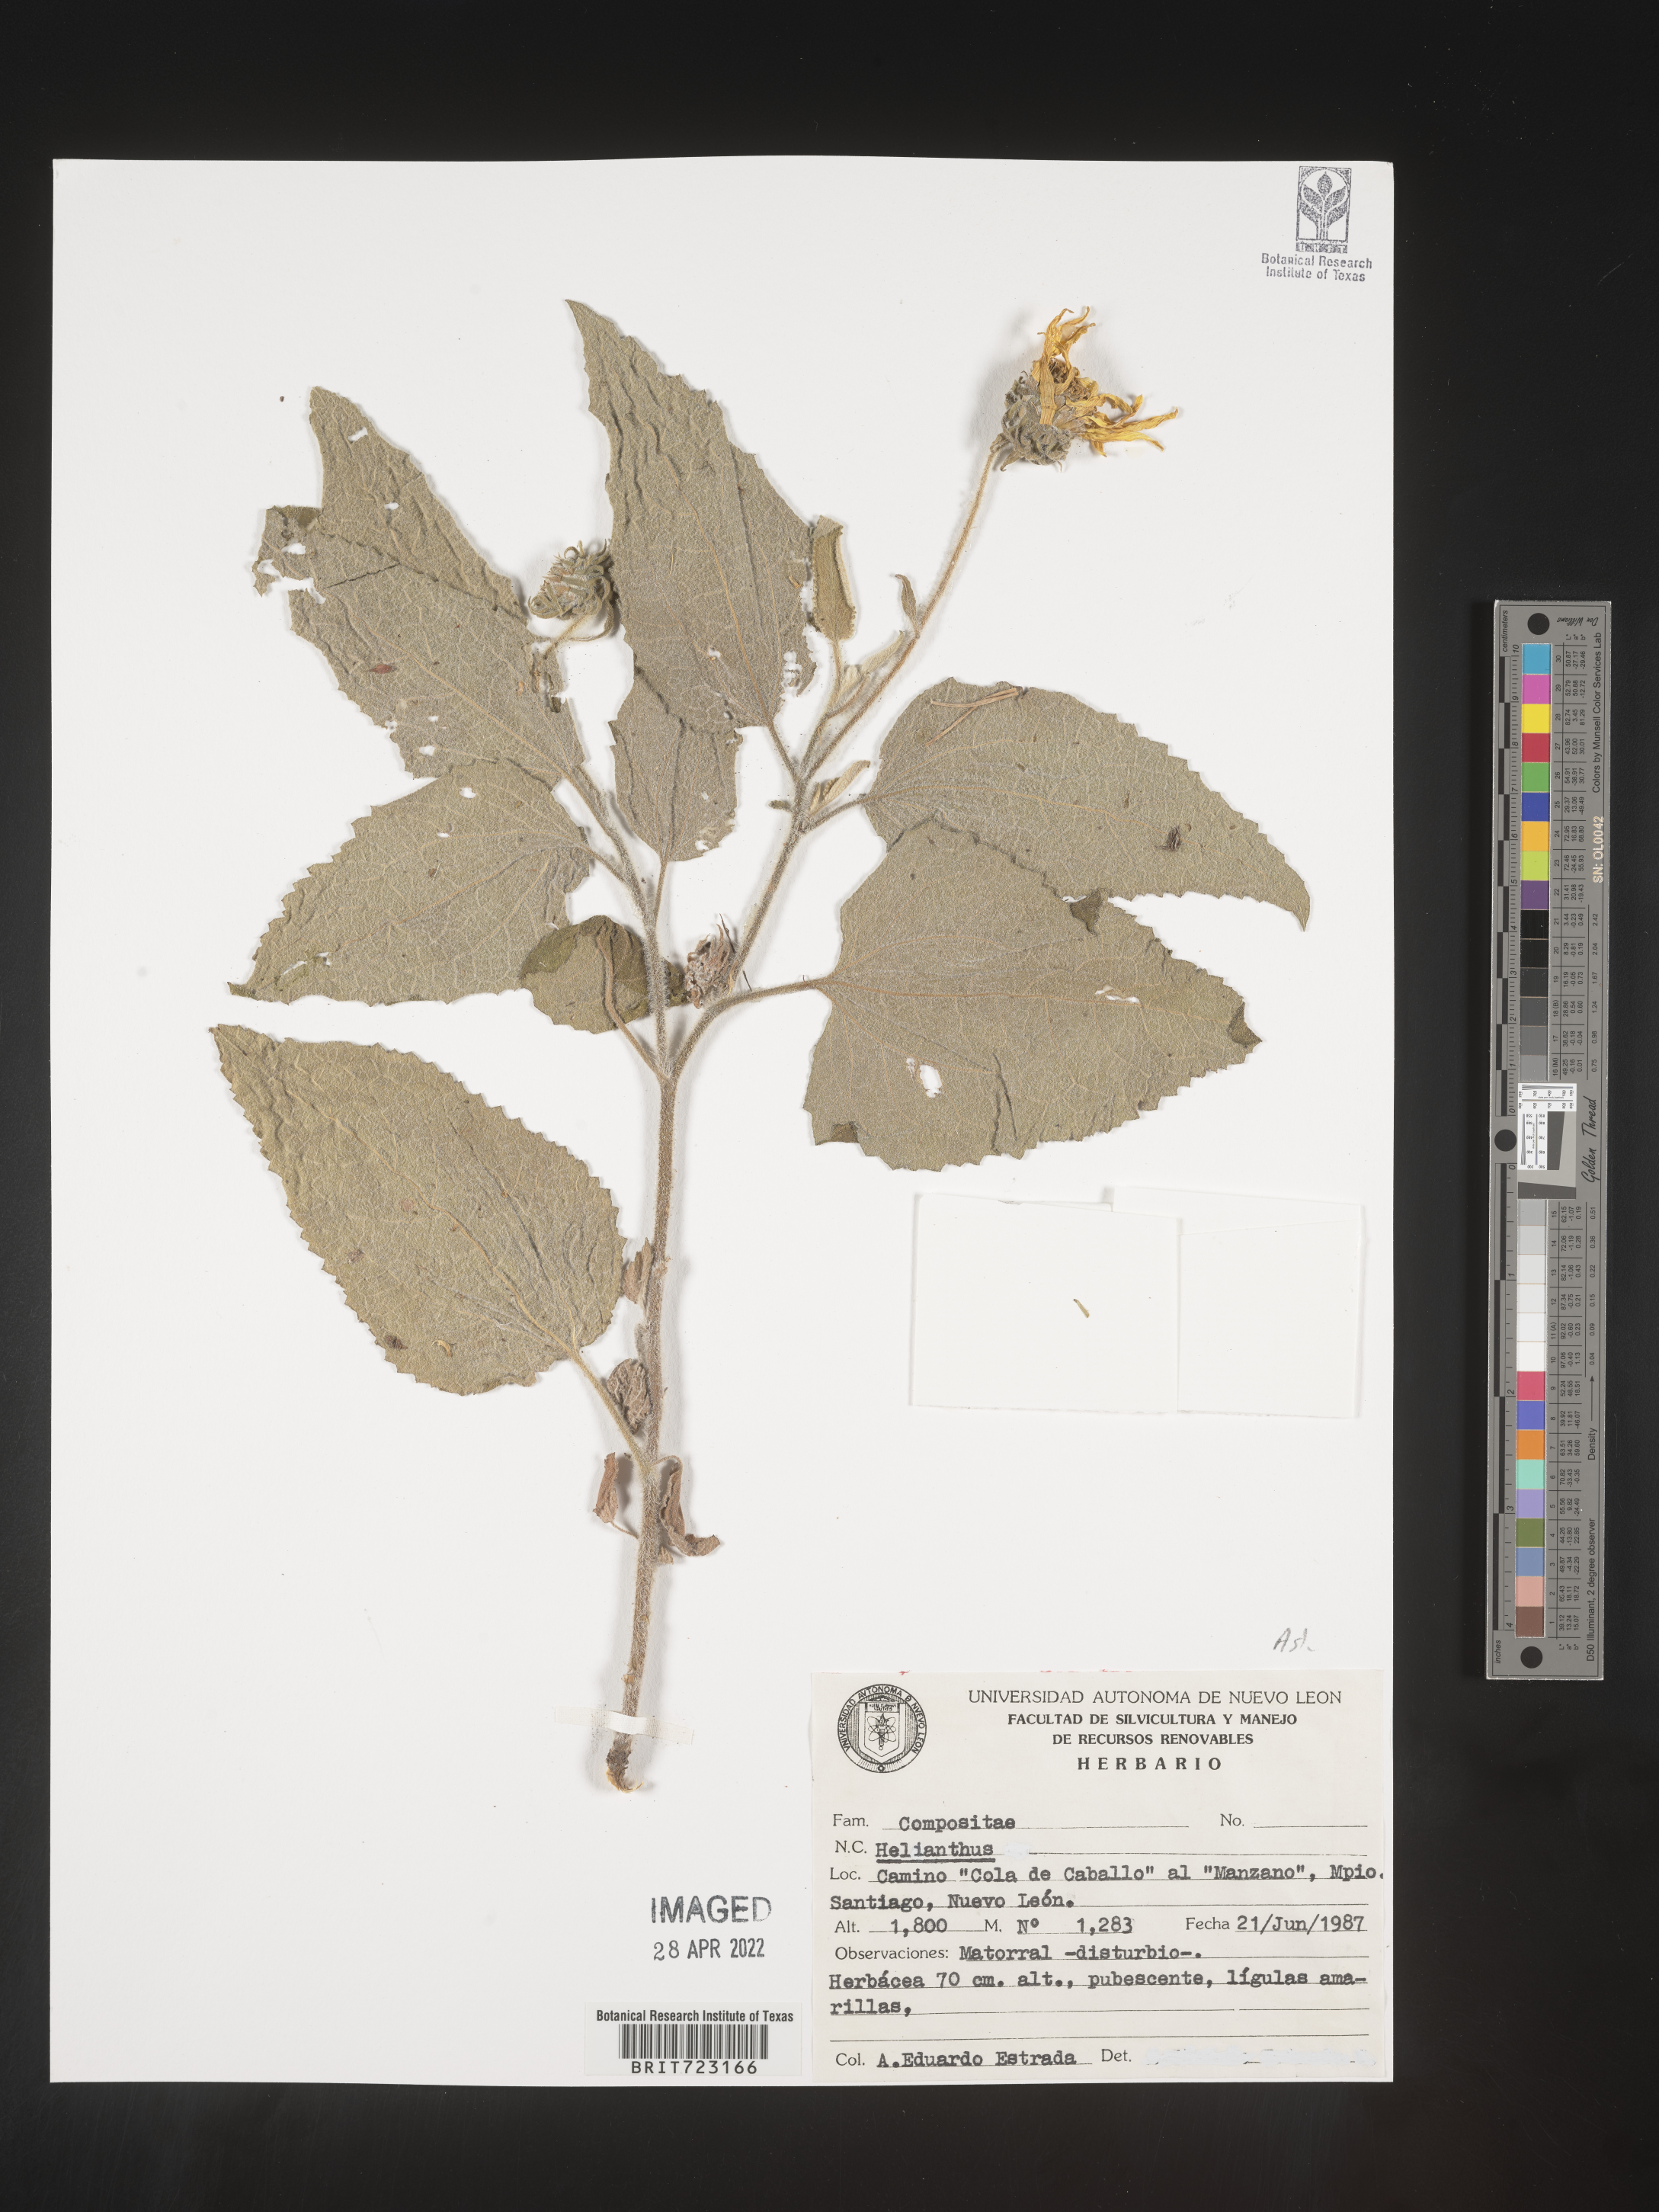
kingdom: Plantae
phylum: Tracheophyta
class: Magnoliopsida
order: Asterales
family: Asteraceae
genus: Helianthus
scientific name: Helianthus
